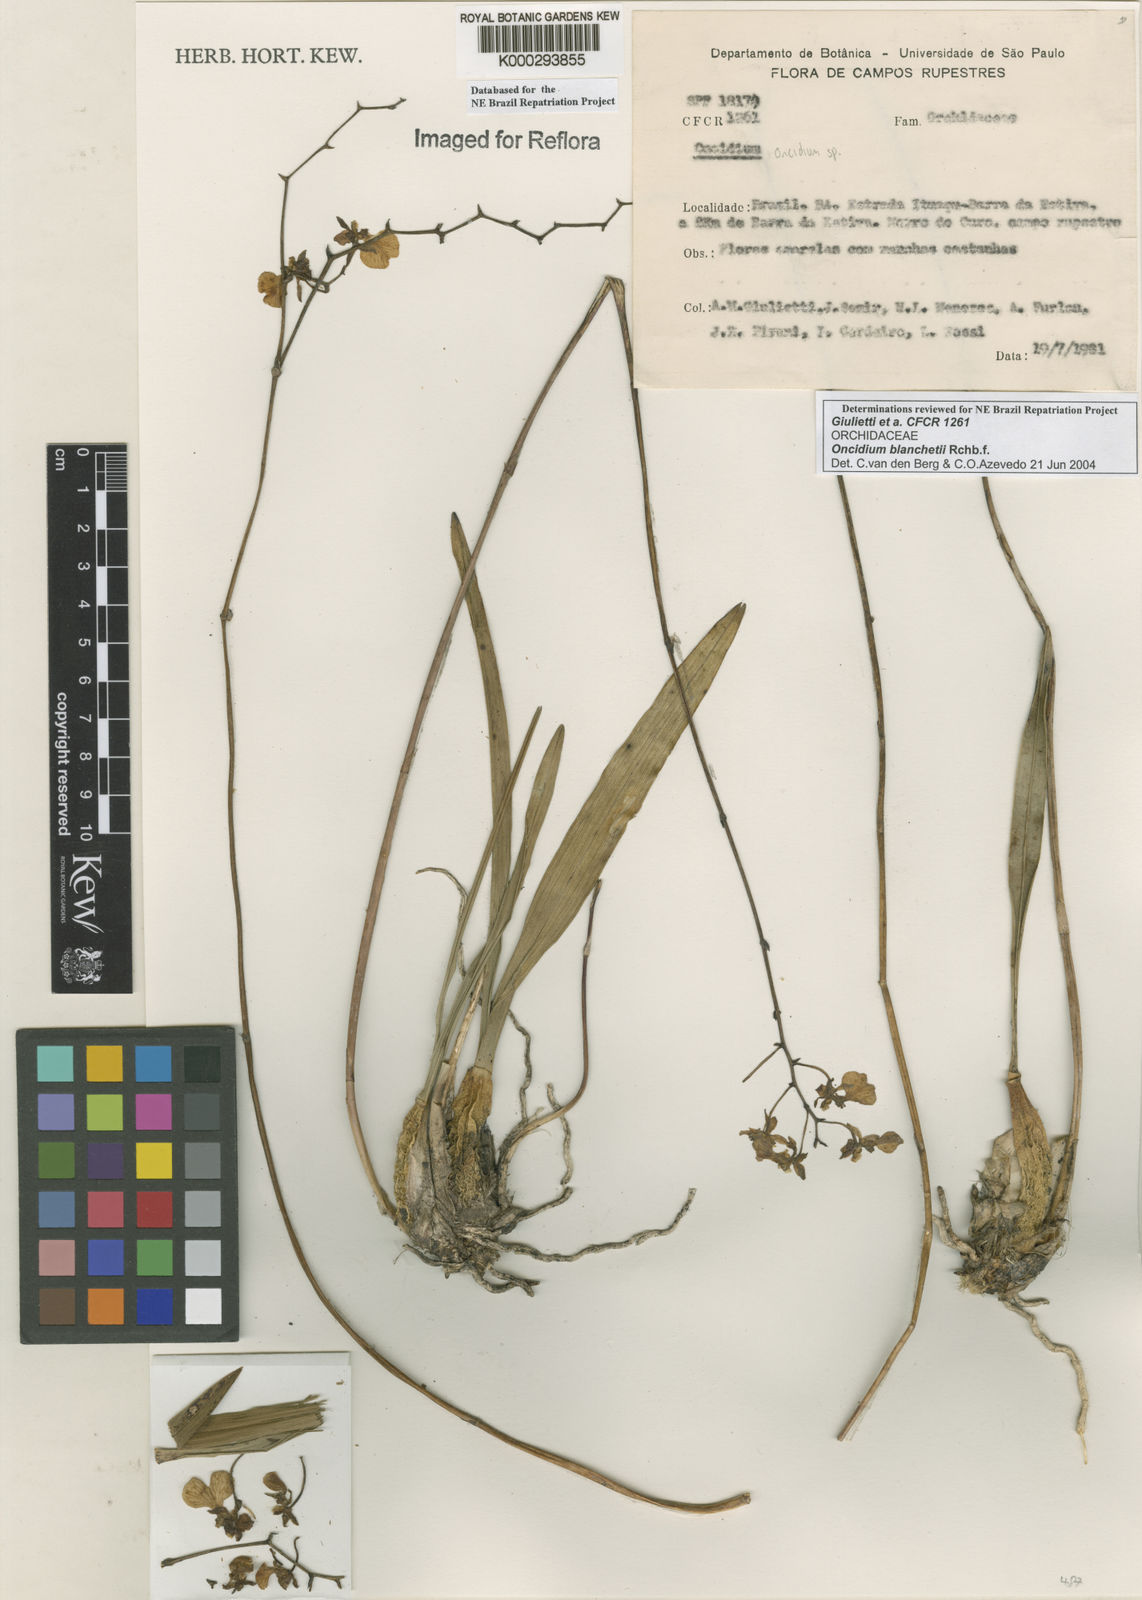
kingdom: Plantae
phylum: Tracheophyta
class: Liliopsida
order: Asparagales
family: Orchidaceae
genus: Gomesa
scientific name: Gomesa blanchetii
